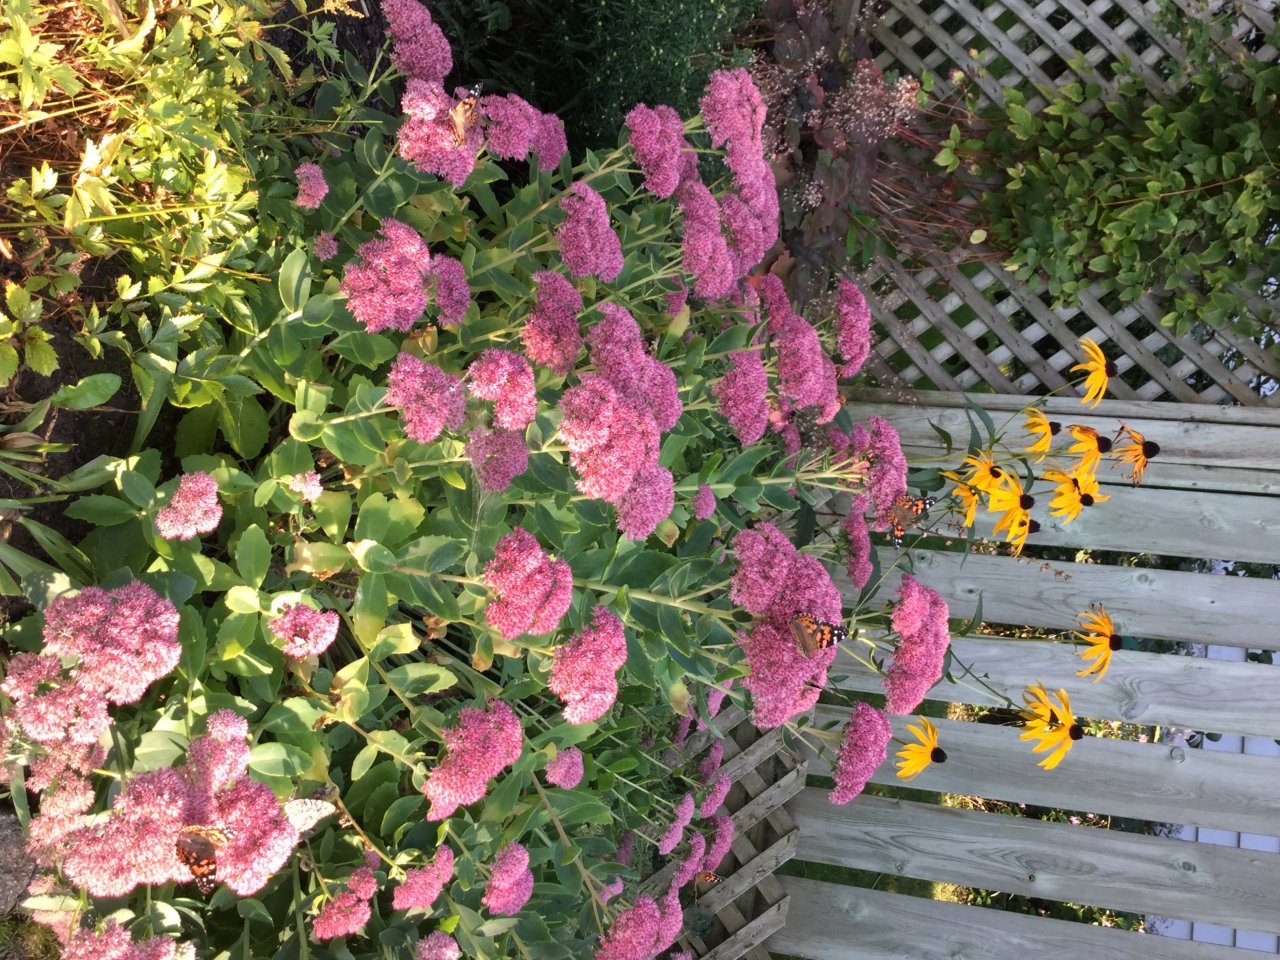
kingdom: Animalia
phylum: Arthropoda
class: Insecta
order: Lepidoptera
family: Nymphalidae
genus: Vanessa
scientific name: Vanessa cardui
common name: Painted Lady
